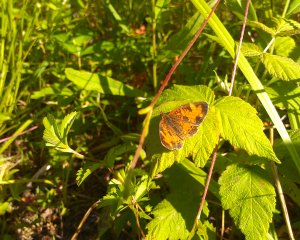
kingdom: Animalia
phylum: Arthropoda
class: Insecta
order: Lepidoptera
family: Nymphalidae
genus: Phyciodes
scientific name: Phyciodes tharos
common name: Northern Crescent
